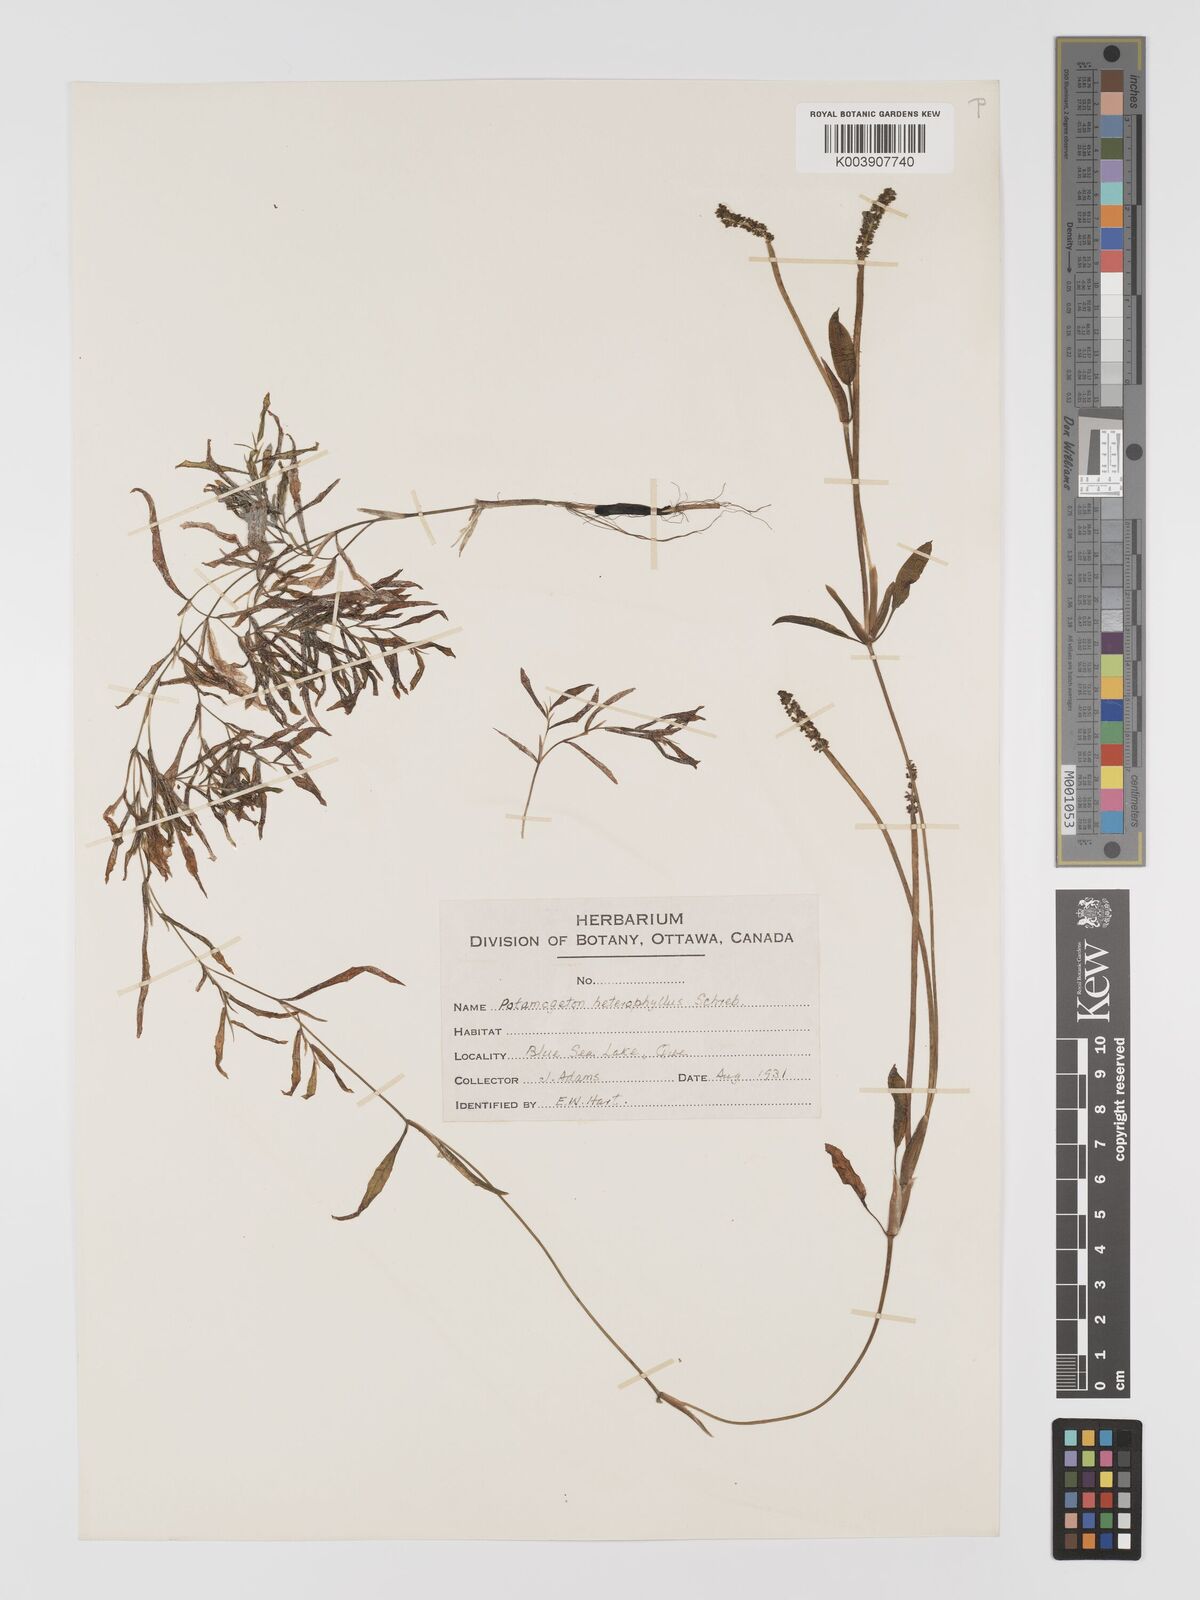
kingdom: Plantae
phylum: Tracheophyta
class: Liliopsida
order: Alismatales
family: Potamogetonaceae
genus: Potamogeton
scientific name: Potamogeton gramineus
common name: Various-leaved pondweed
